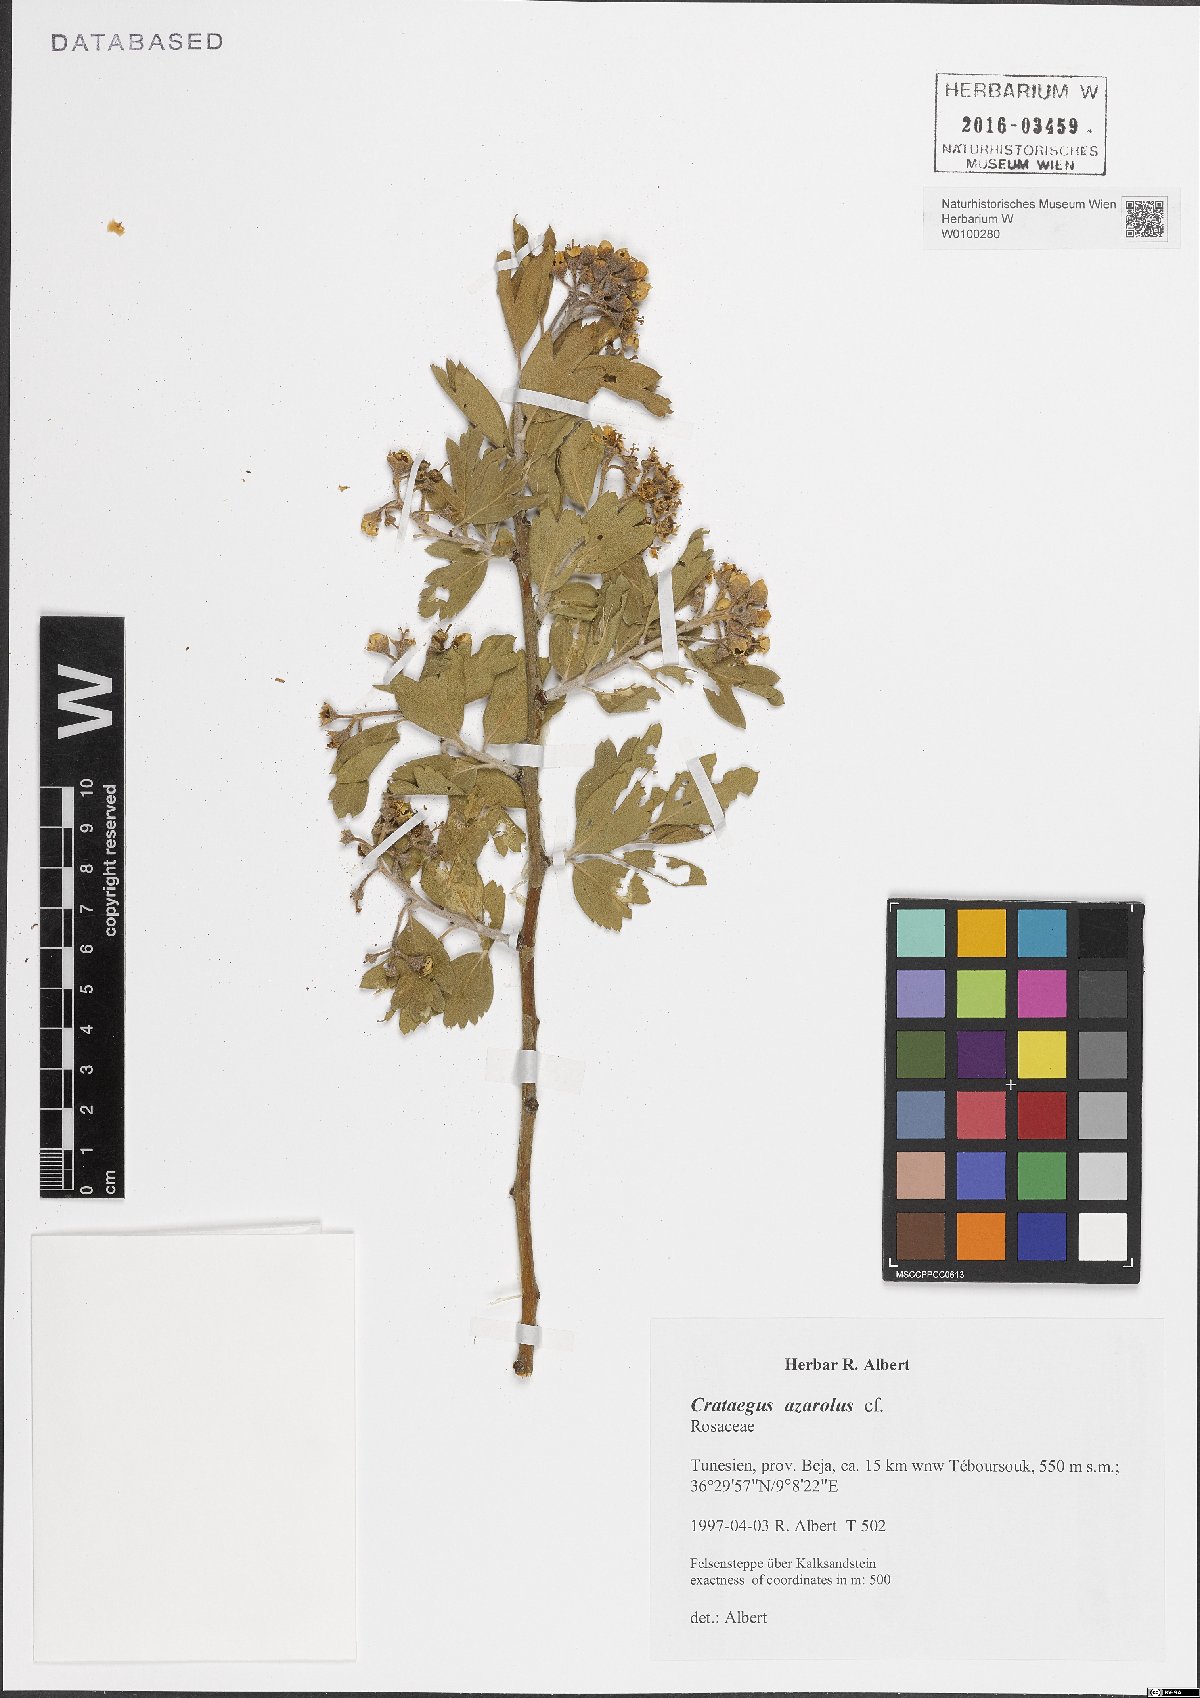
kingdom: Plantae
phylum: Tracheophyta
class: Magnoliopsida
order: Rosales
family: Rosaceae
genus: Crataegus
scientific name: Crataegus azarolus
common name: Azarole
